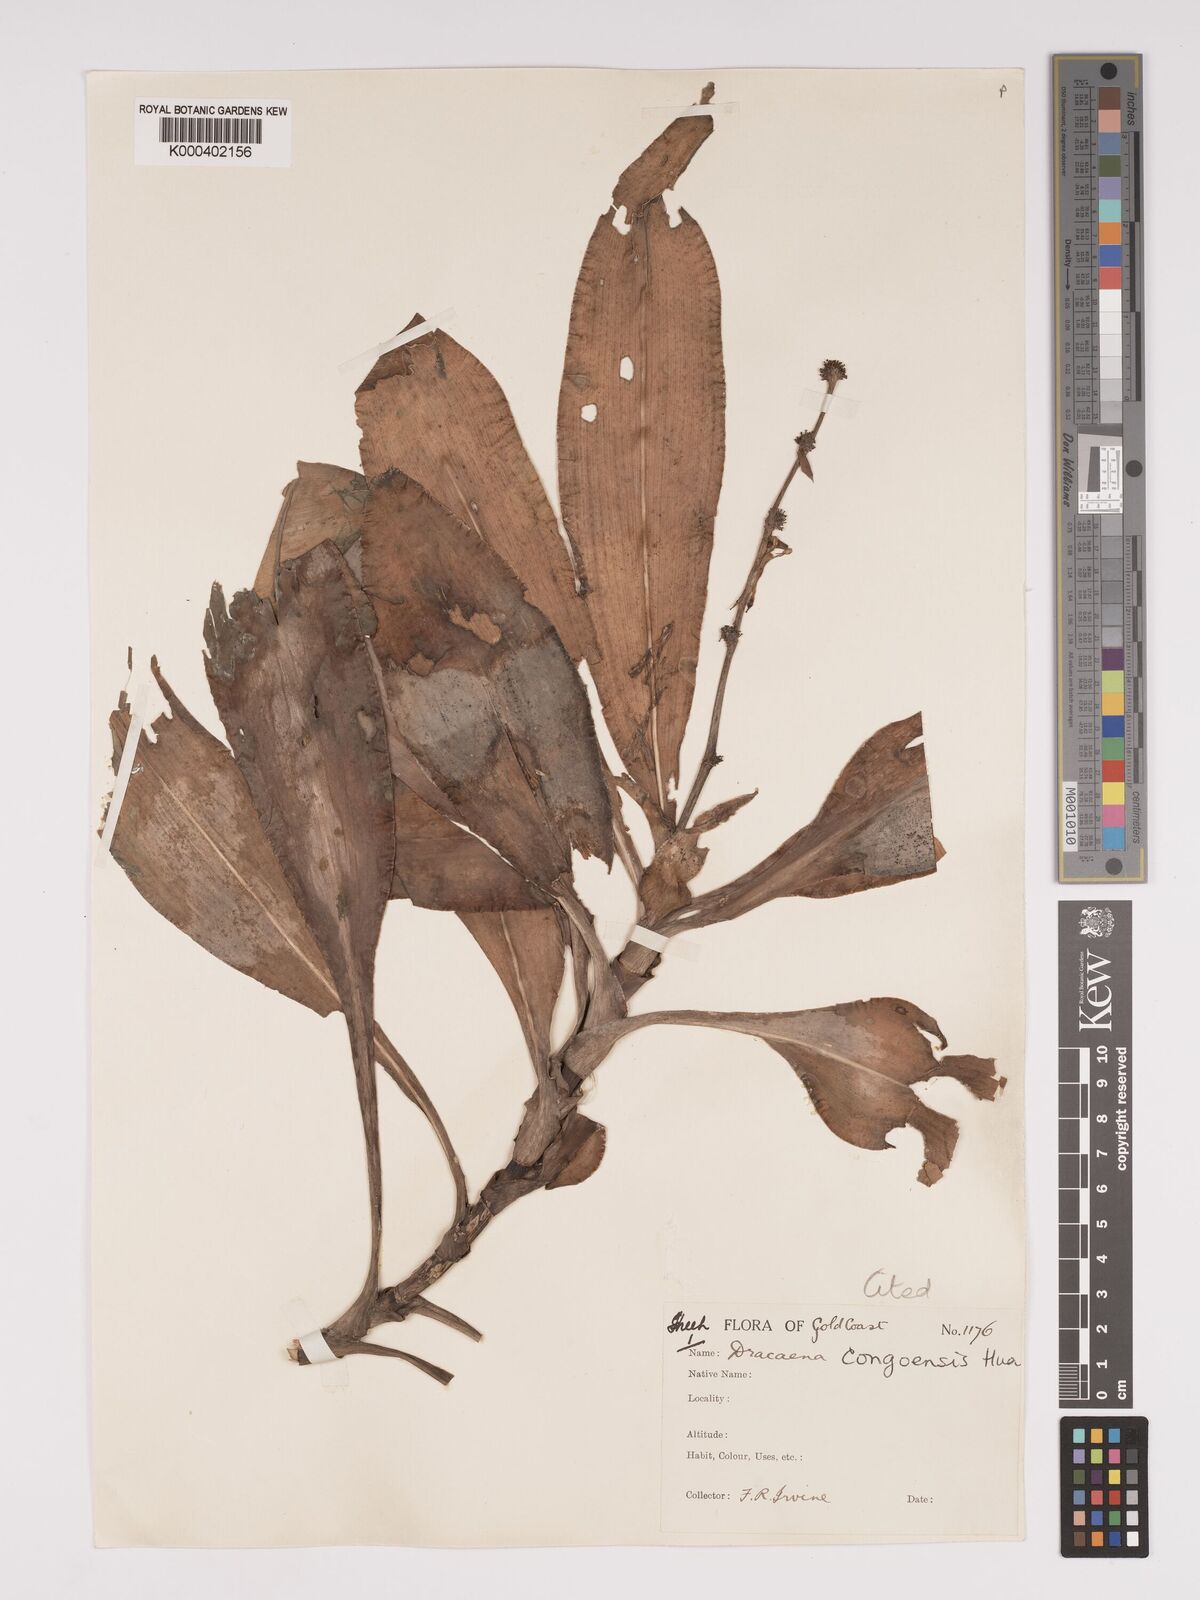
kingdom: Plantae
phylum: Tracheophyta
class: Liliopsida
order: Asparagales
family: Asparagaceae
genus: Dracaena
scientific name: Dracaena congoensis
